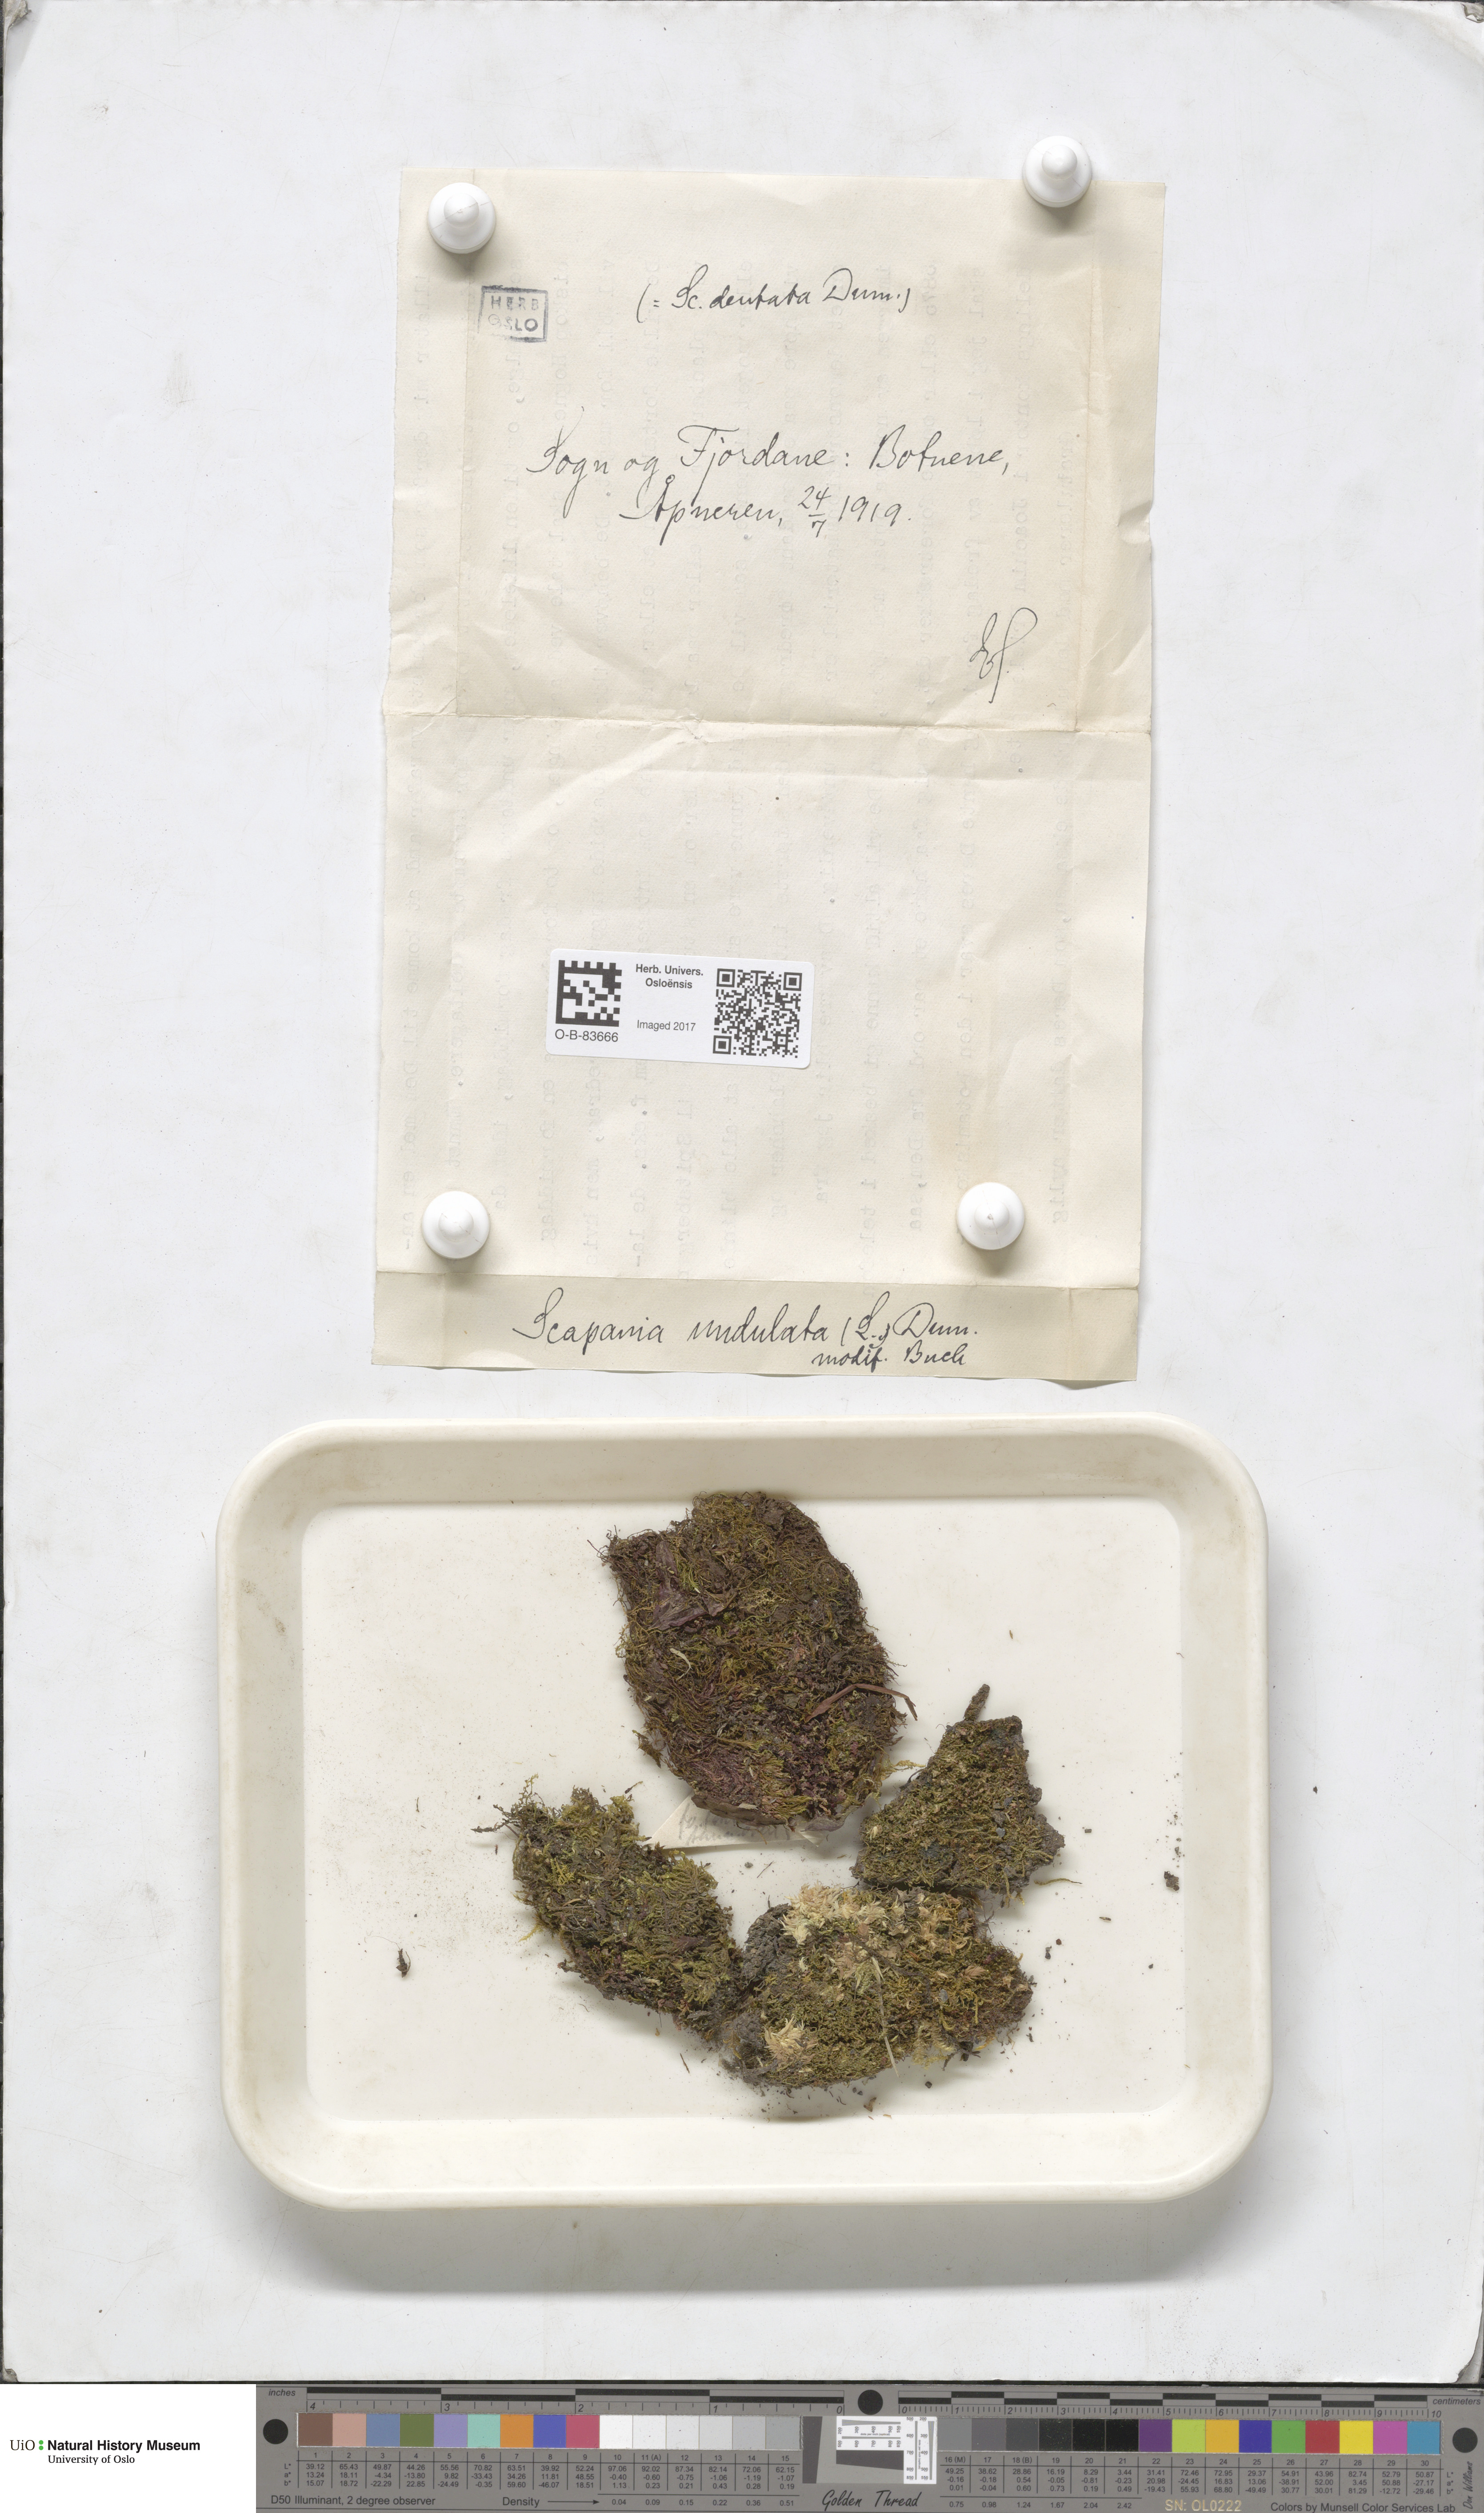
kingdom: Plantae
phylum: Marchantiophyta
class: Jungermanniopsida
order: Jungermanniales
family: Scapaniaceae
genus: Scapania
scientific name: Scapania undulata
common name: Water earwort
